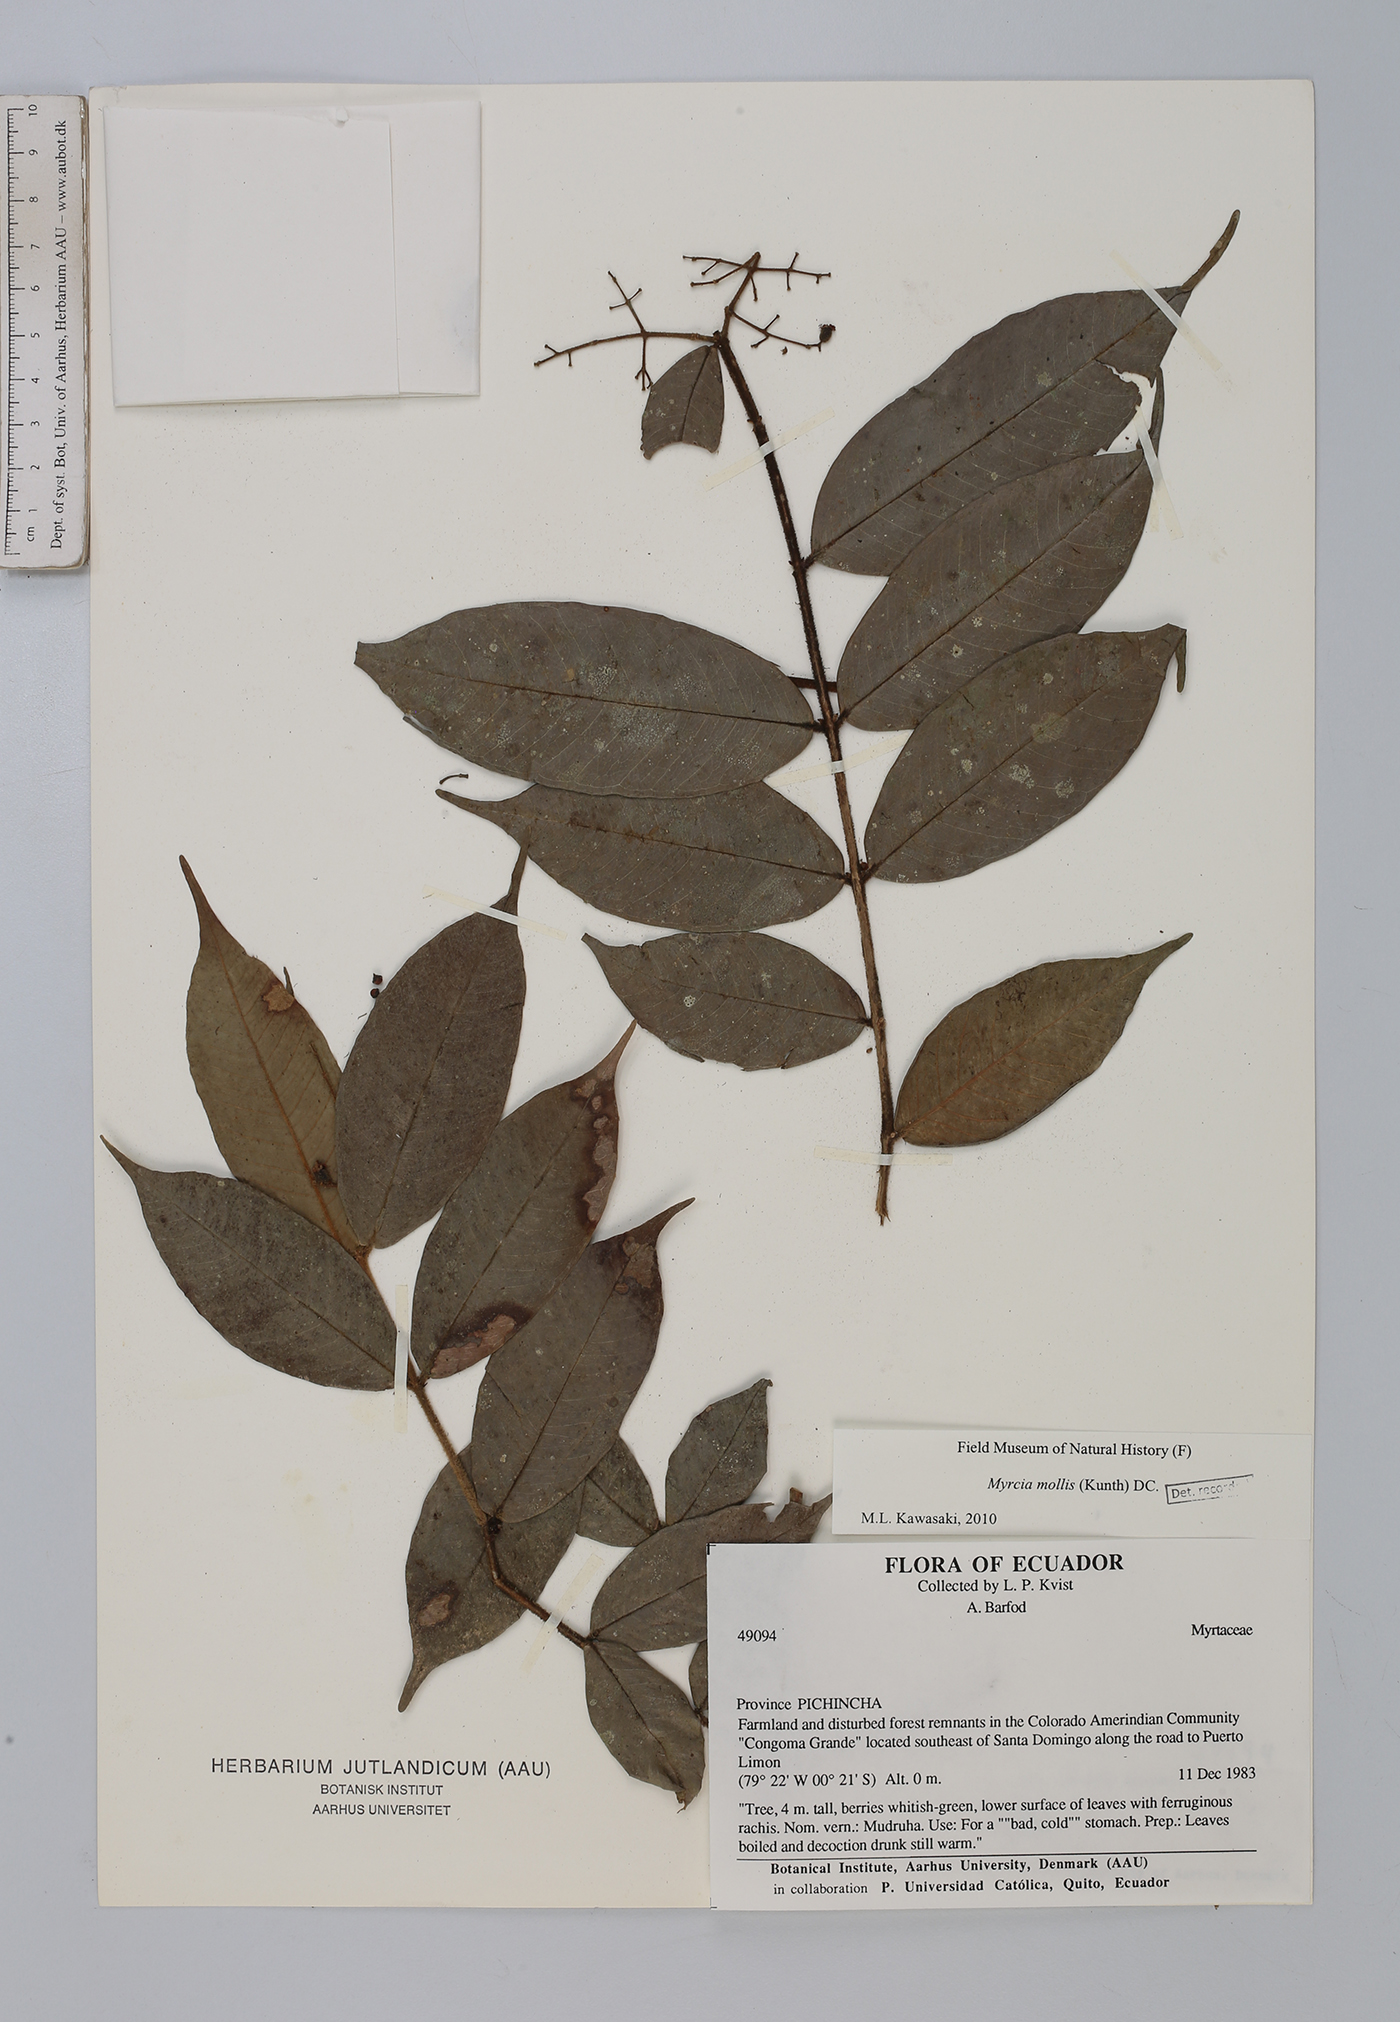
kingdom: Plantae
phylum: Tracheophyta
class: Magnoliopsida
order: Myrtales
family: Myrtaceae
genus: Myrcia
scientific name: Myrcia mollis
